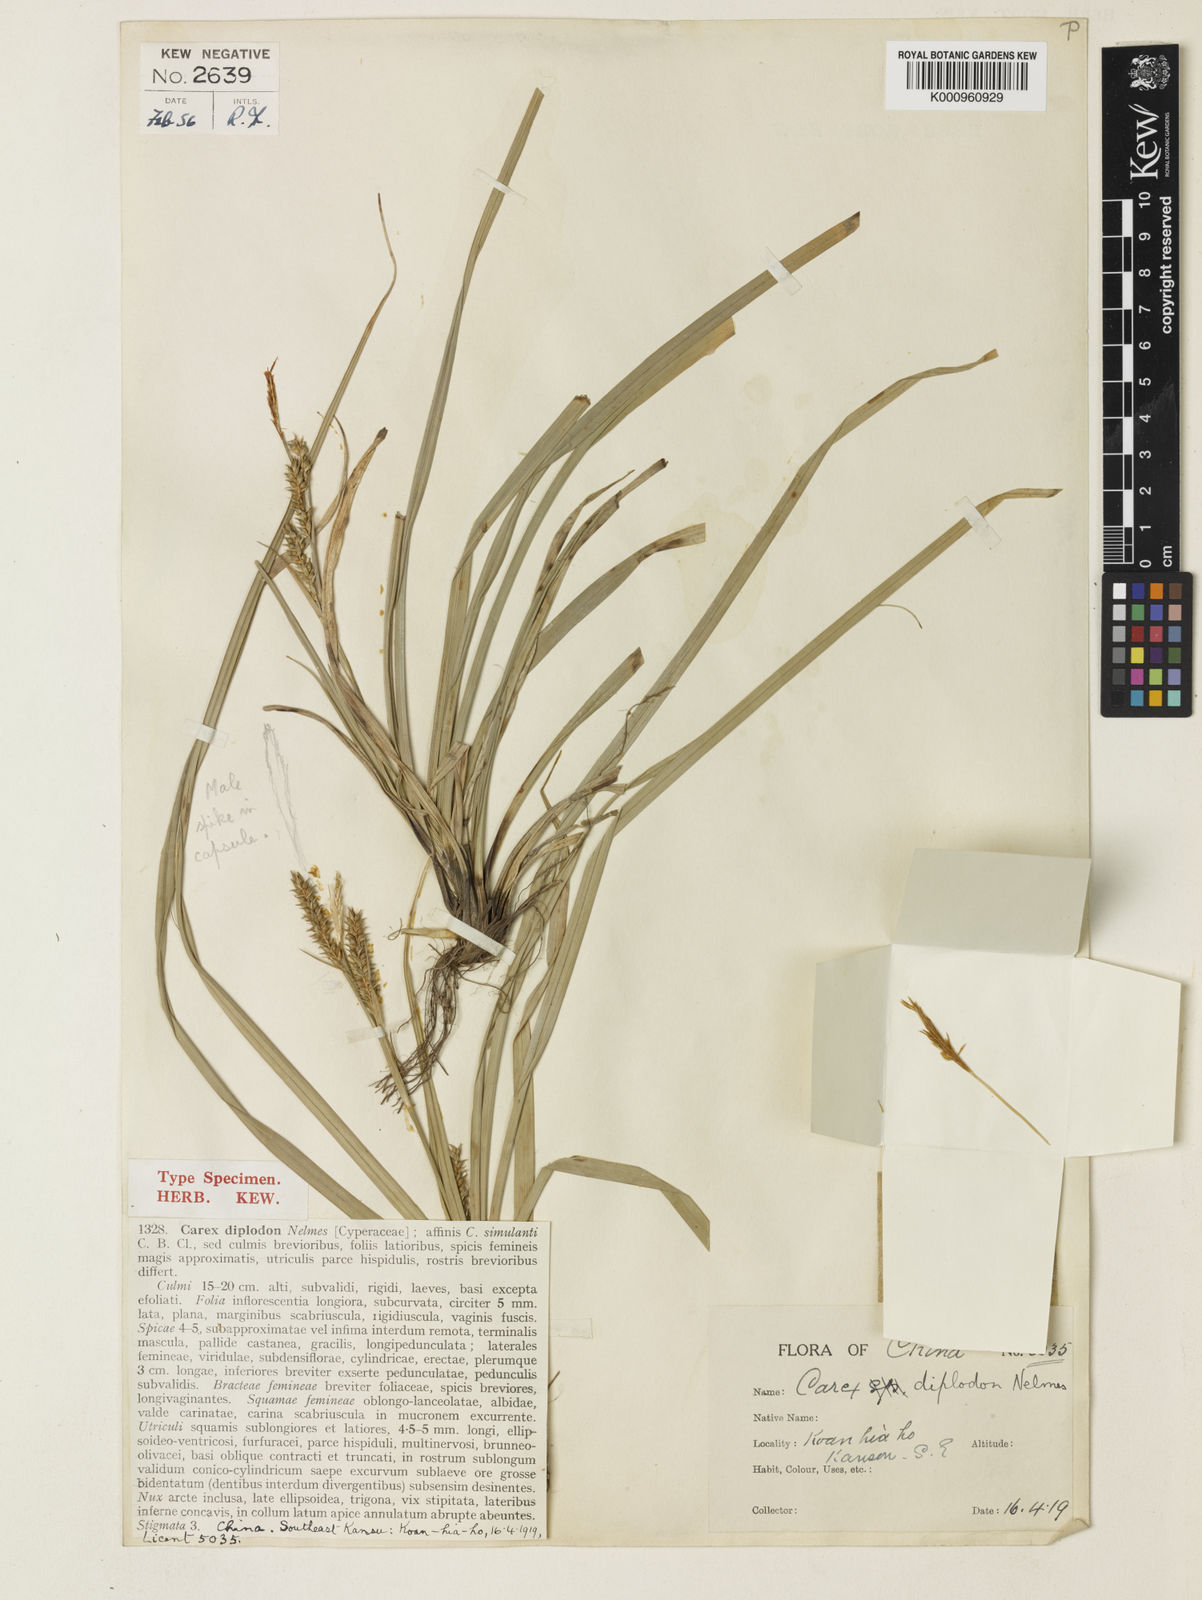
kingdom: Plantae
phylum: Tracheophyta
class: Liliopsida
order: Poales
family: Cyperaceae
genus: Carex
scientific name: Carex diplodon
